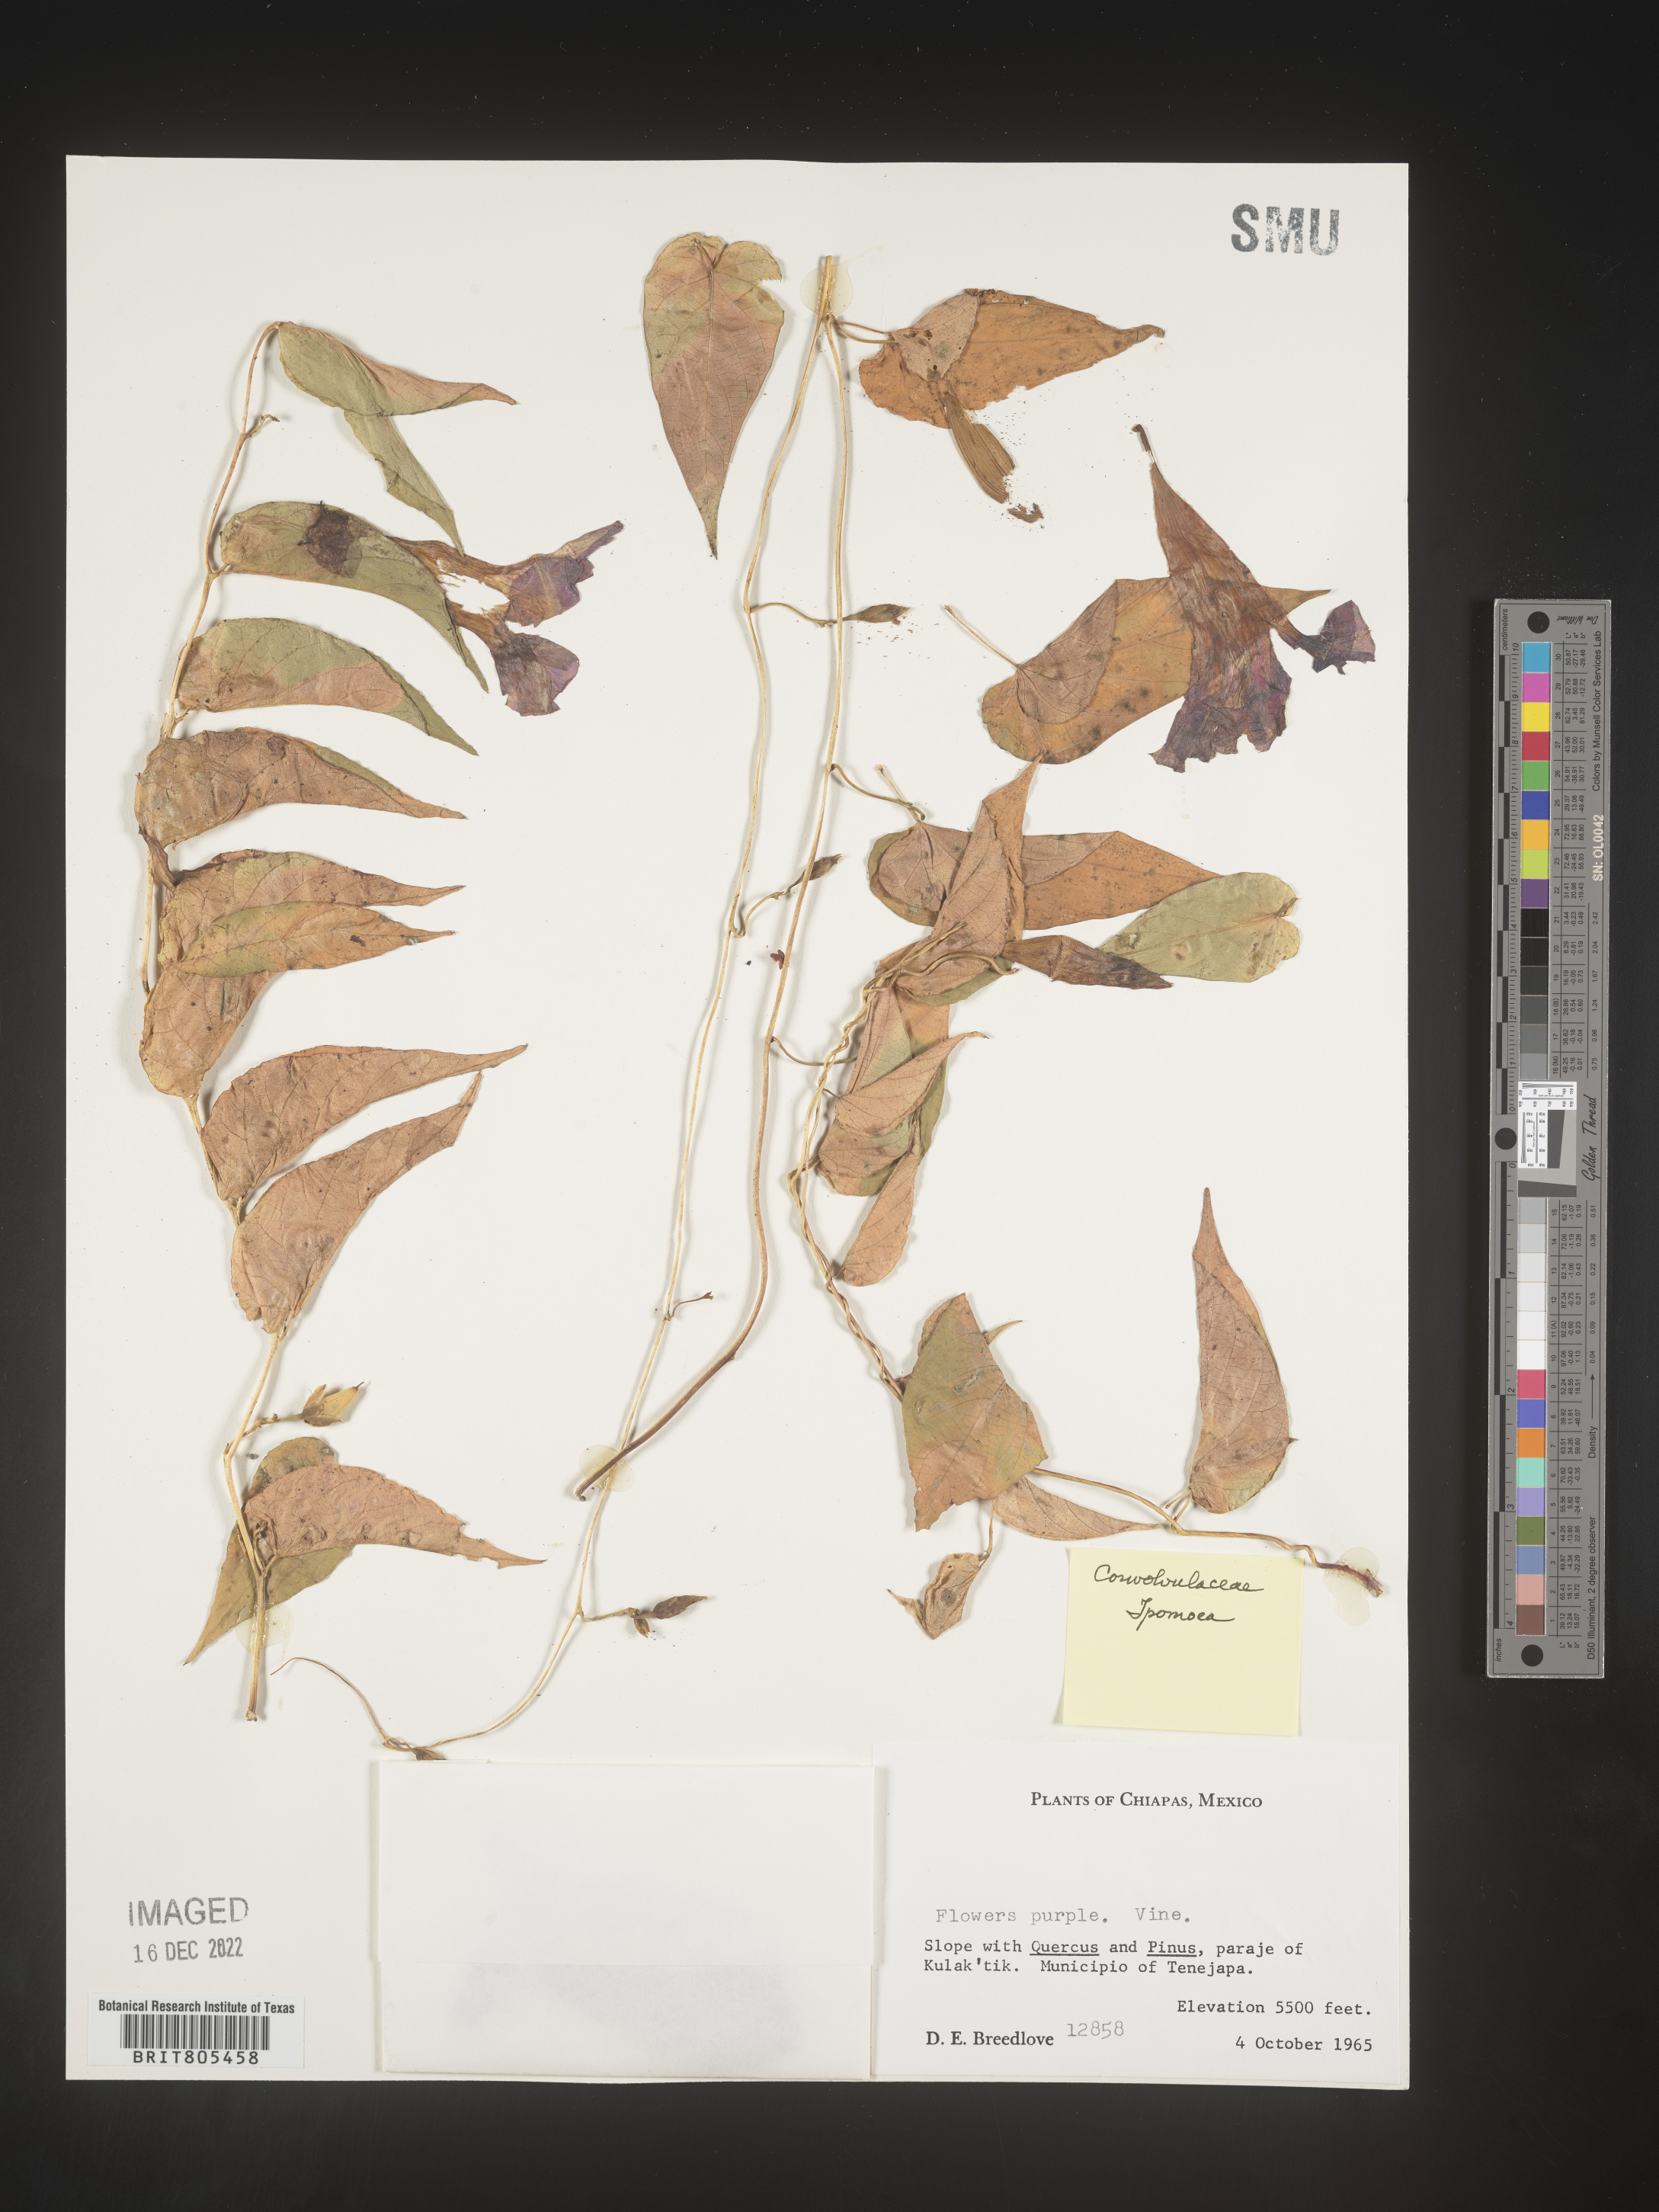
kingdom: Plantae
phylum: Tracheophyta
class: Magnoliopsida
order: Solanales
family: Convolvulaceae
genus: Ipomoea
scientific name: Ipomoea
